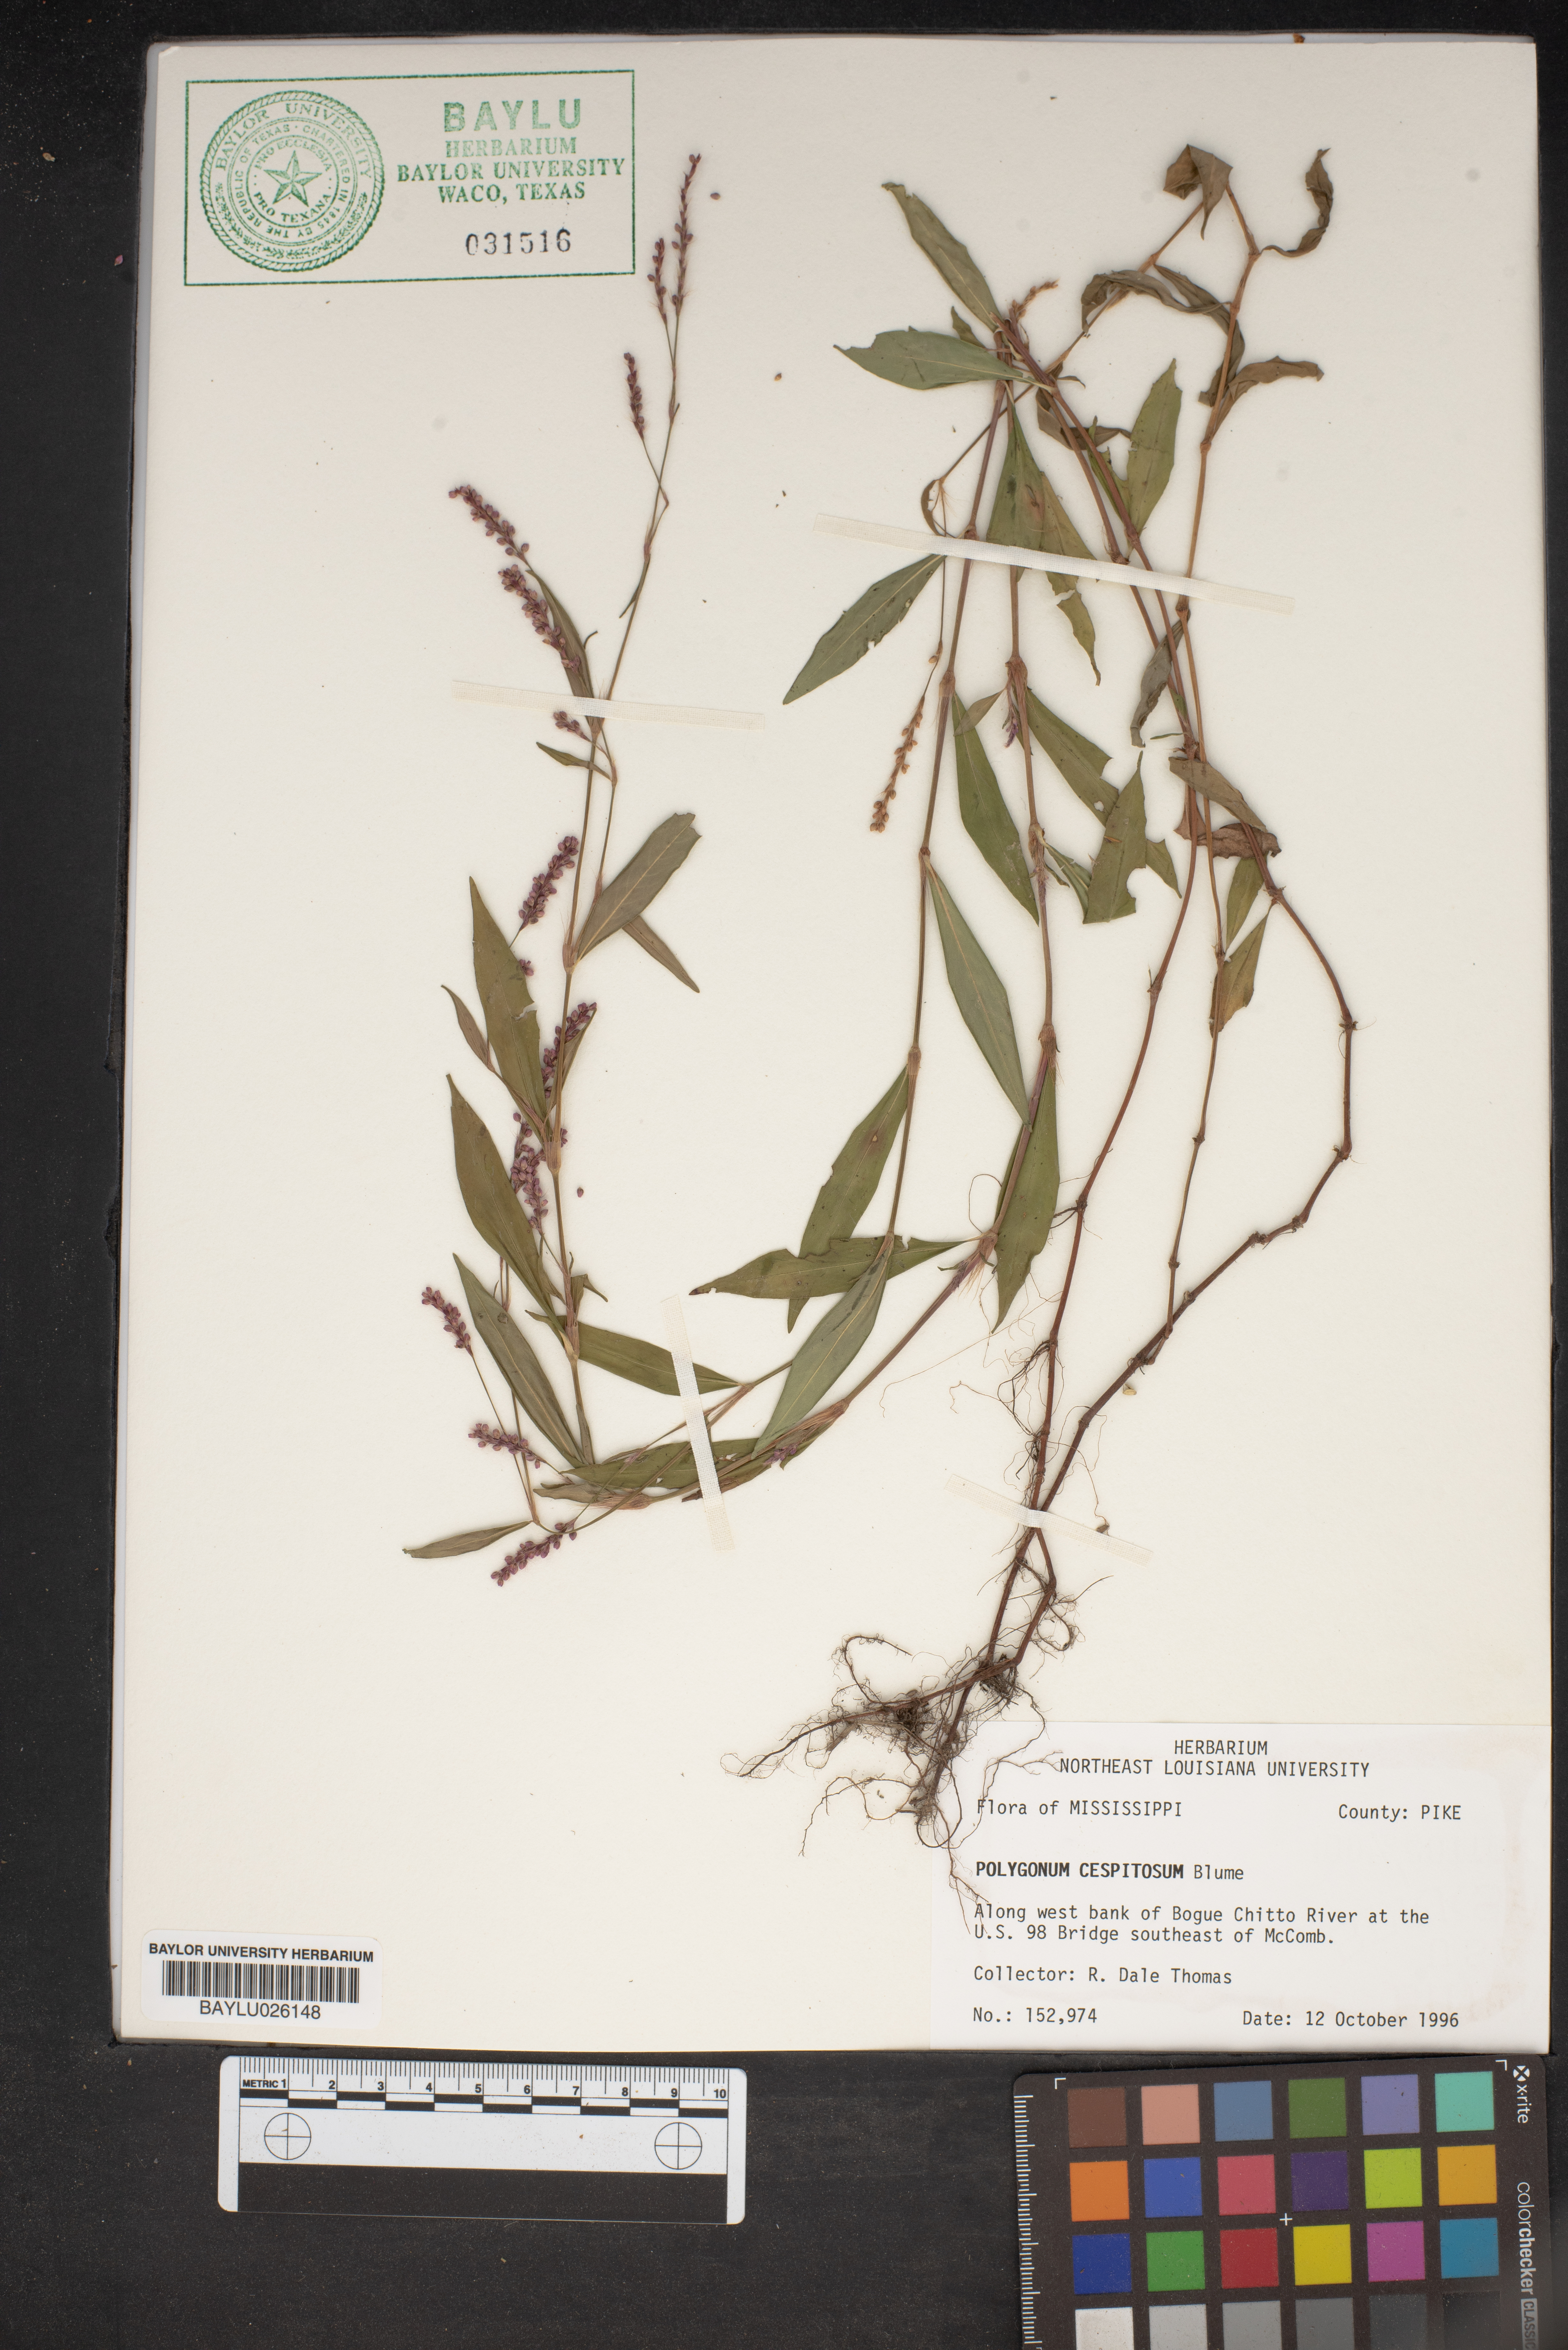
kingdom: Plantae
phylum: Tracheophyta
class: Magnoliopsida
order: Caryophyllales
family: Polygonaceae
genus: Persicaria
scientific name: Persicaria posumbu
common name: Oriental lady's thumb
